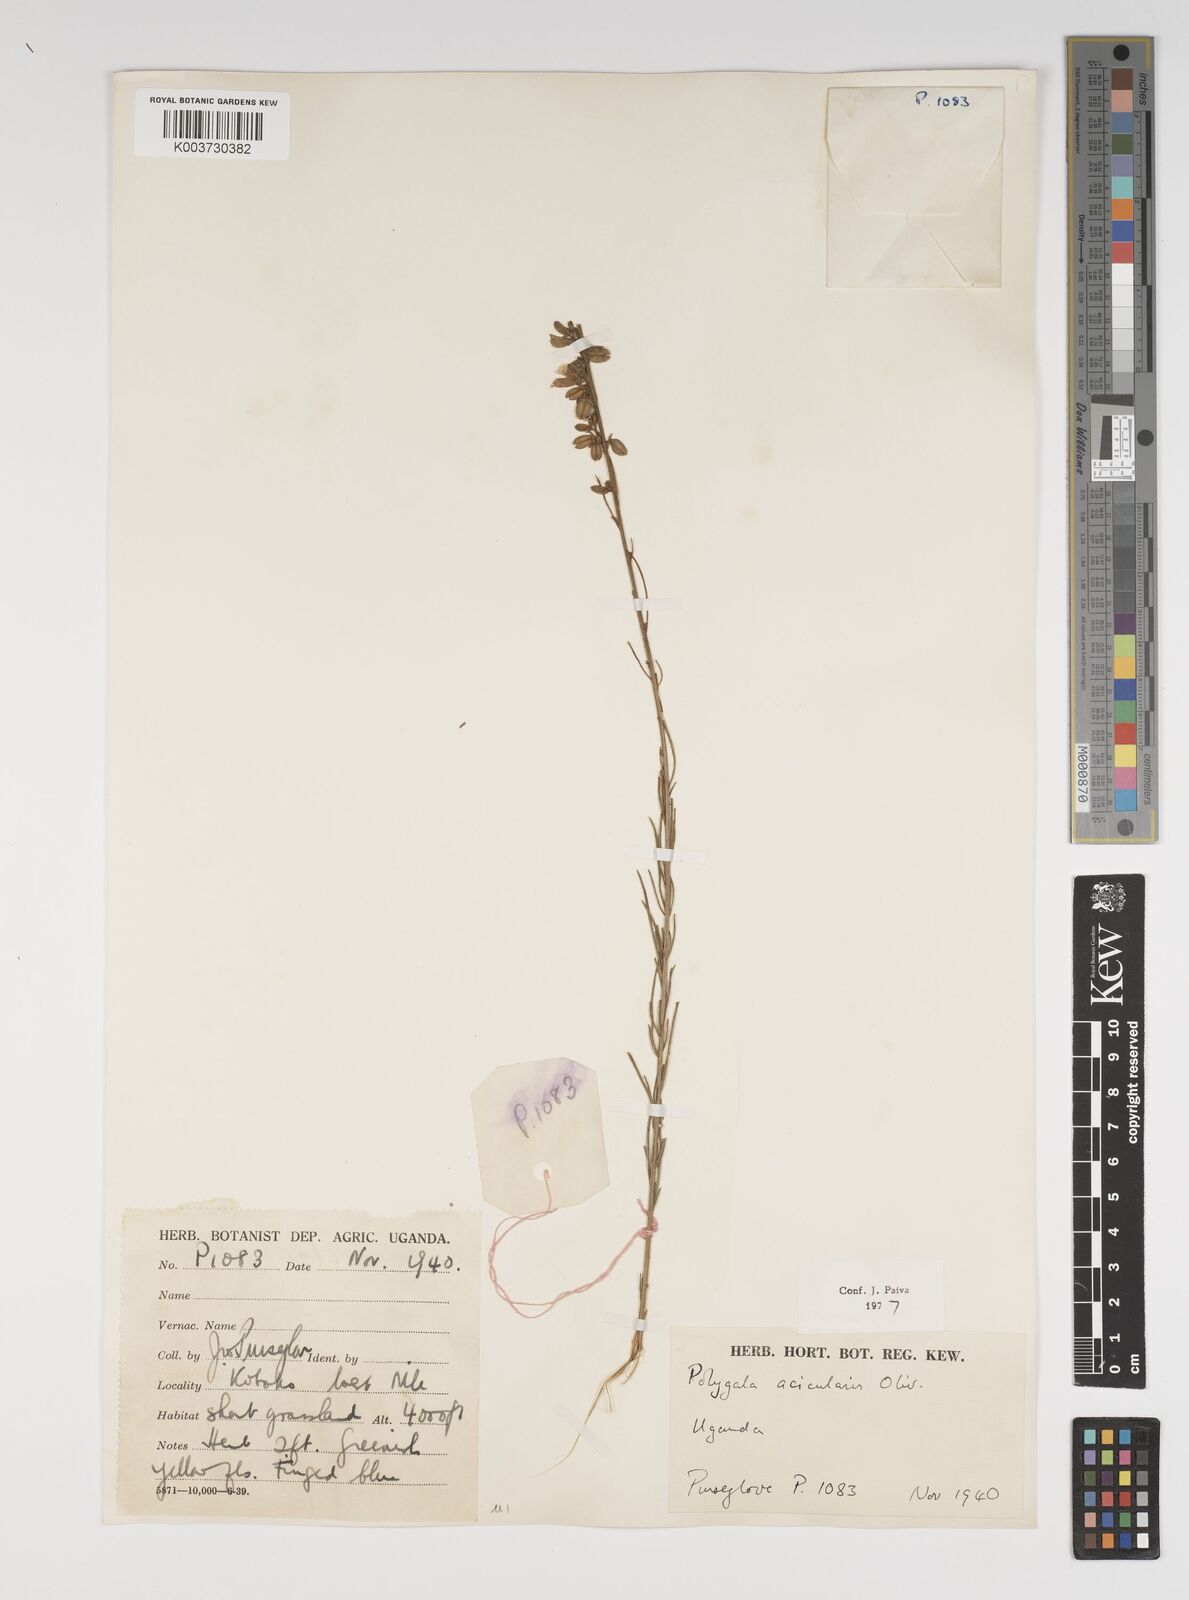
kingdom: Plantae
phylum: Tracheophyta
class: Magnoliopsida
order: Fabales
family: Polygalaceae
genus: Polygala
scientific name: Polygala acicularis
